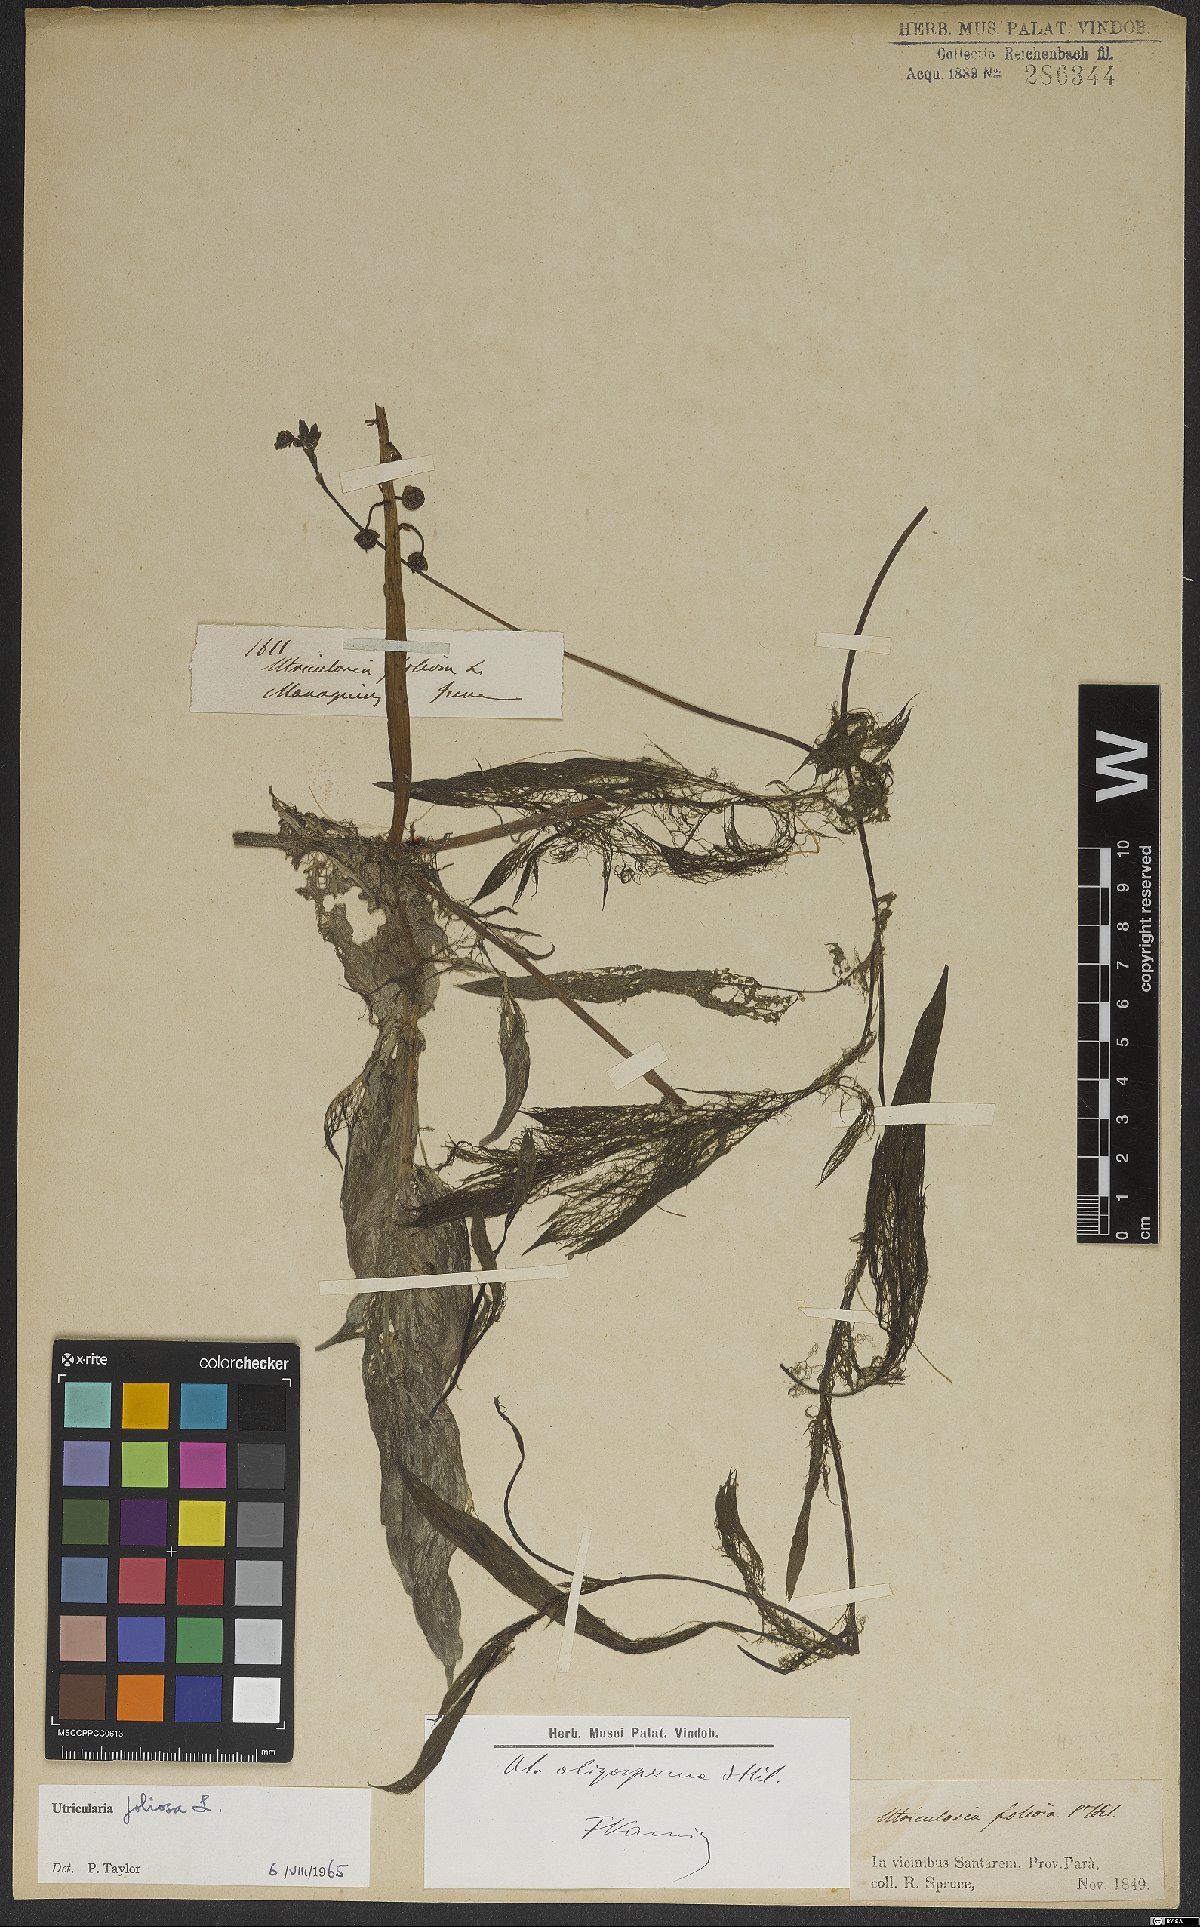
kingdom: Plantae
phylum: Tracheophyta
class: Magnoliopsida
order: Lamiales
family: Lentibulariaceae
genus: Utricularia
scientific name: Utricularia foliosa
